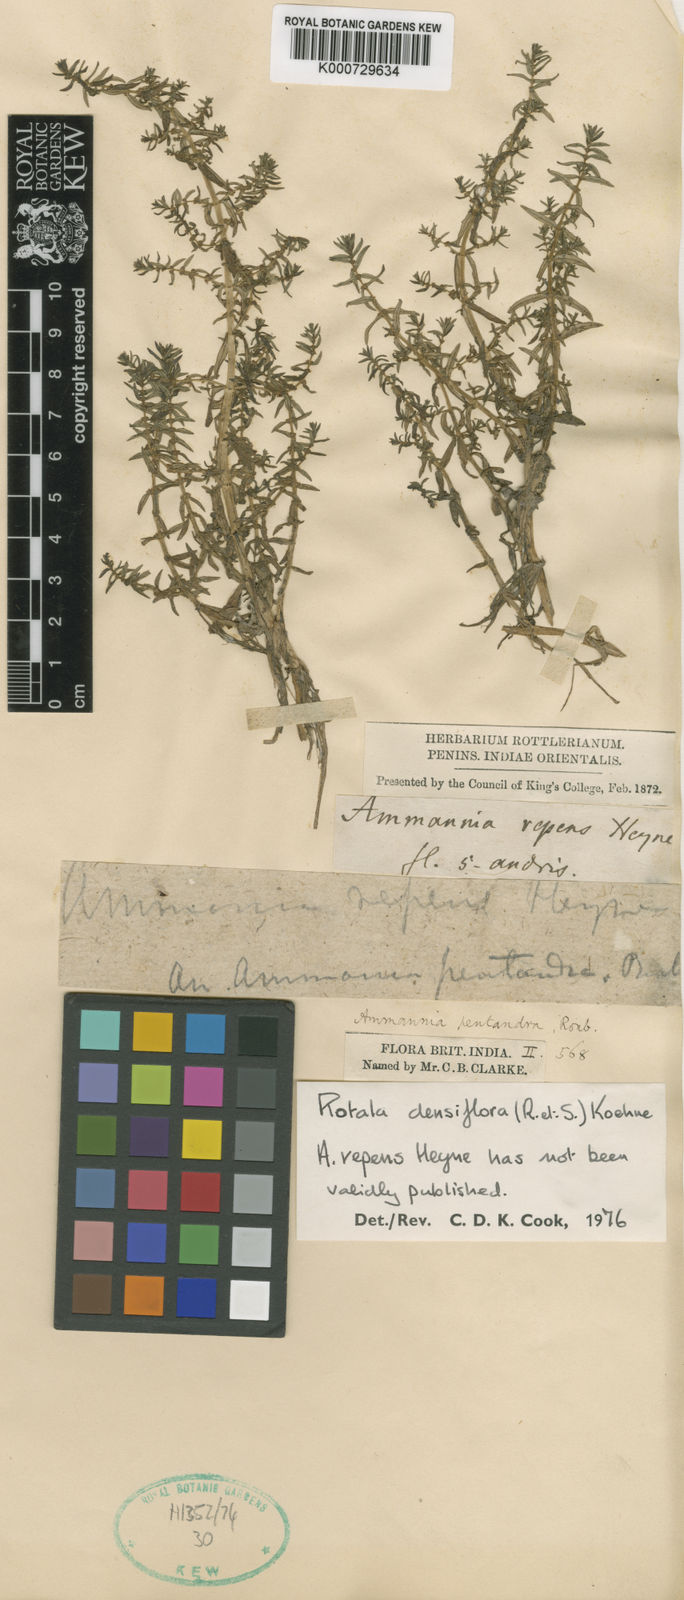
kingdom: Plantae
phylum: Tracheophyta
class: Magnoliopsida
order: Myrtales
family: Lythraceae
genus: Rotala
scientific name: Rotala densiflora
